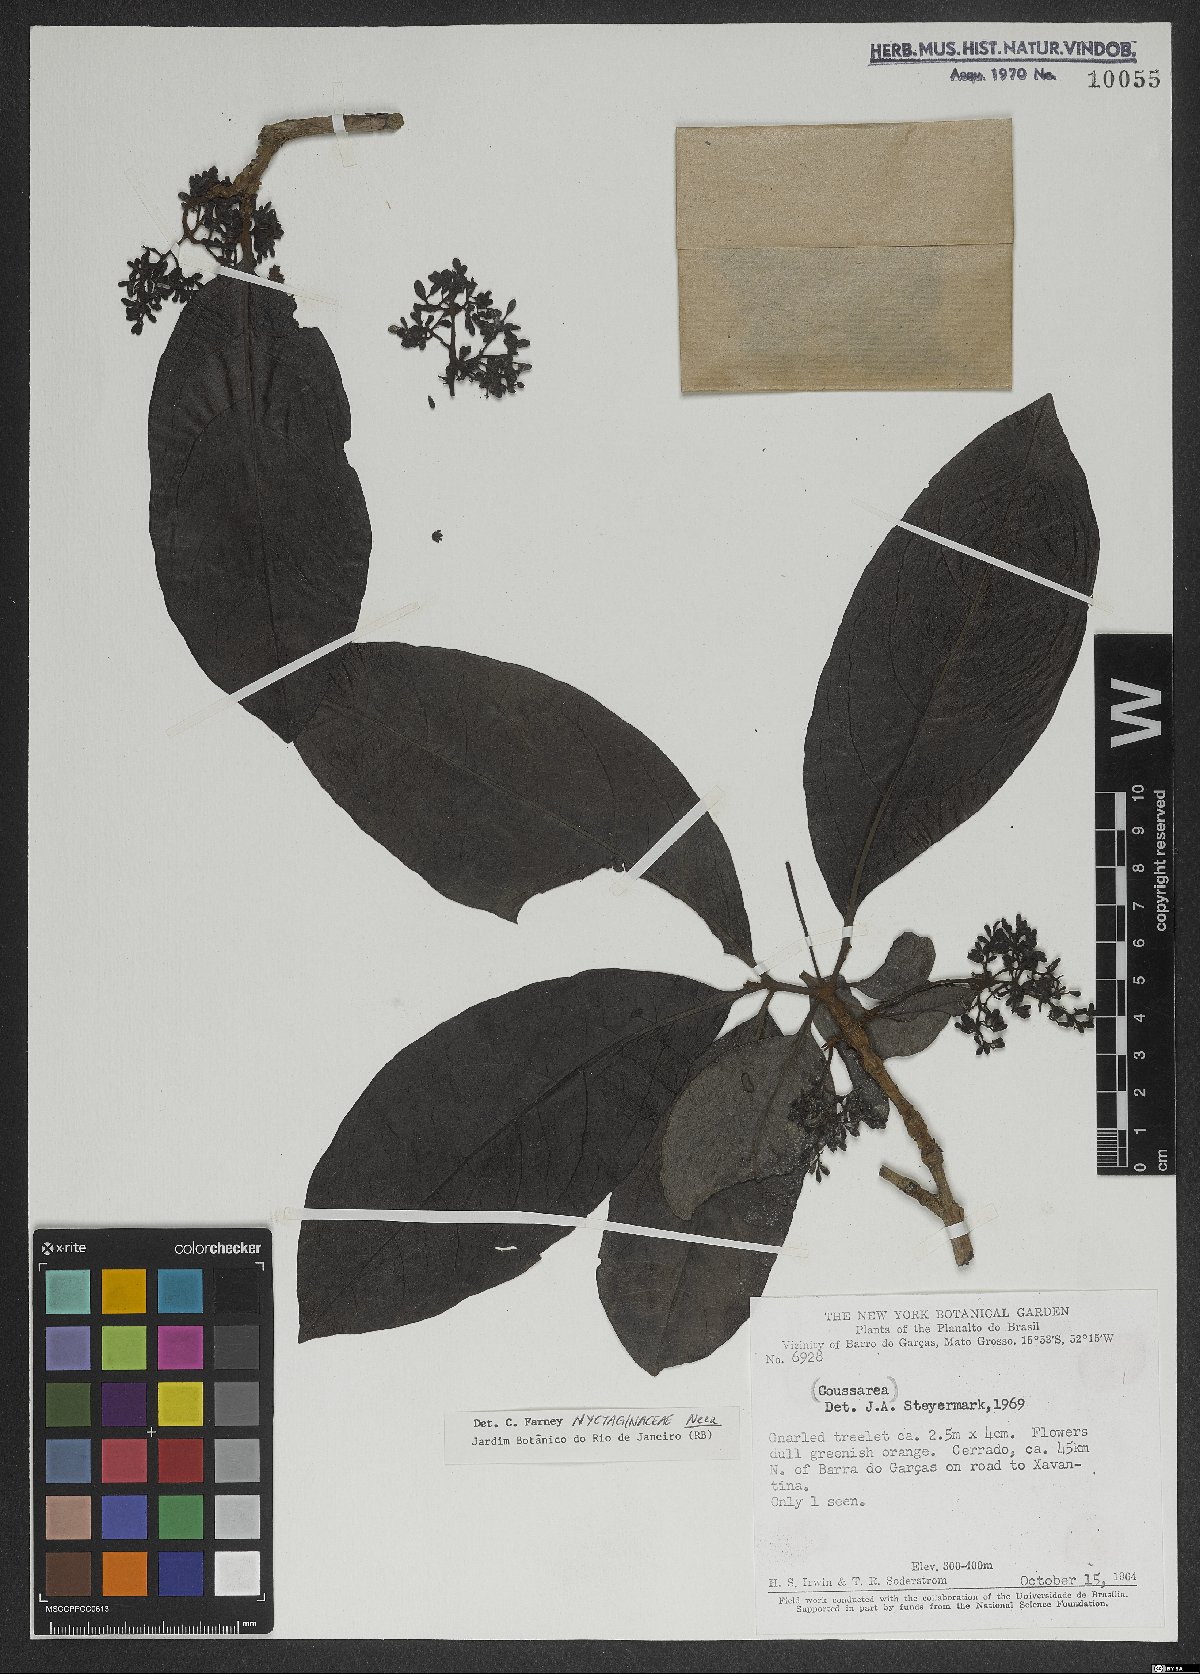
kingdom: Plantae
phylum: Tracheophyta
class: Magnoliopsida
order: Caryophyllales
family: Nyctaginaceae
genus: Neea
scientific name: Neea
